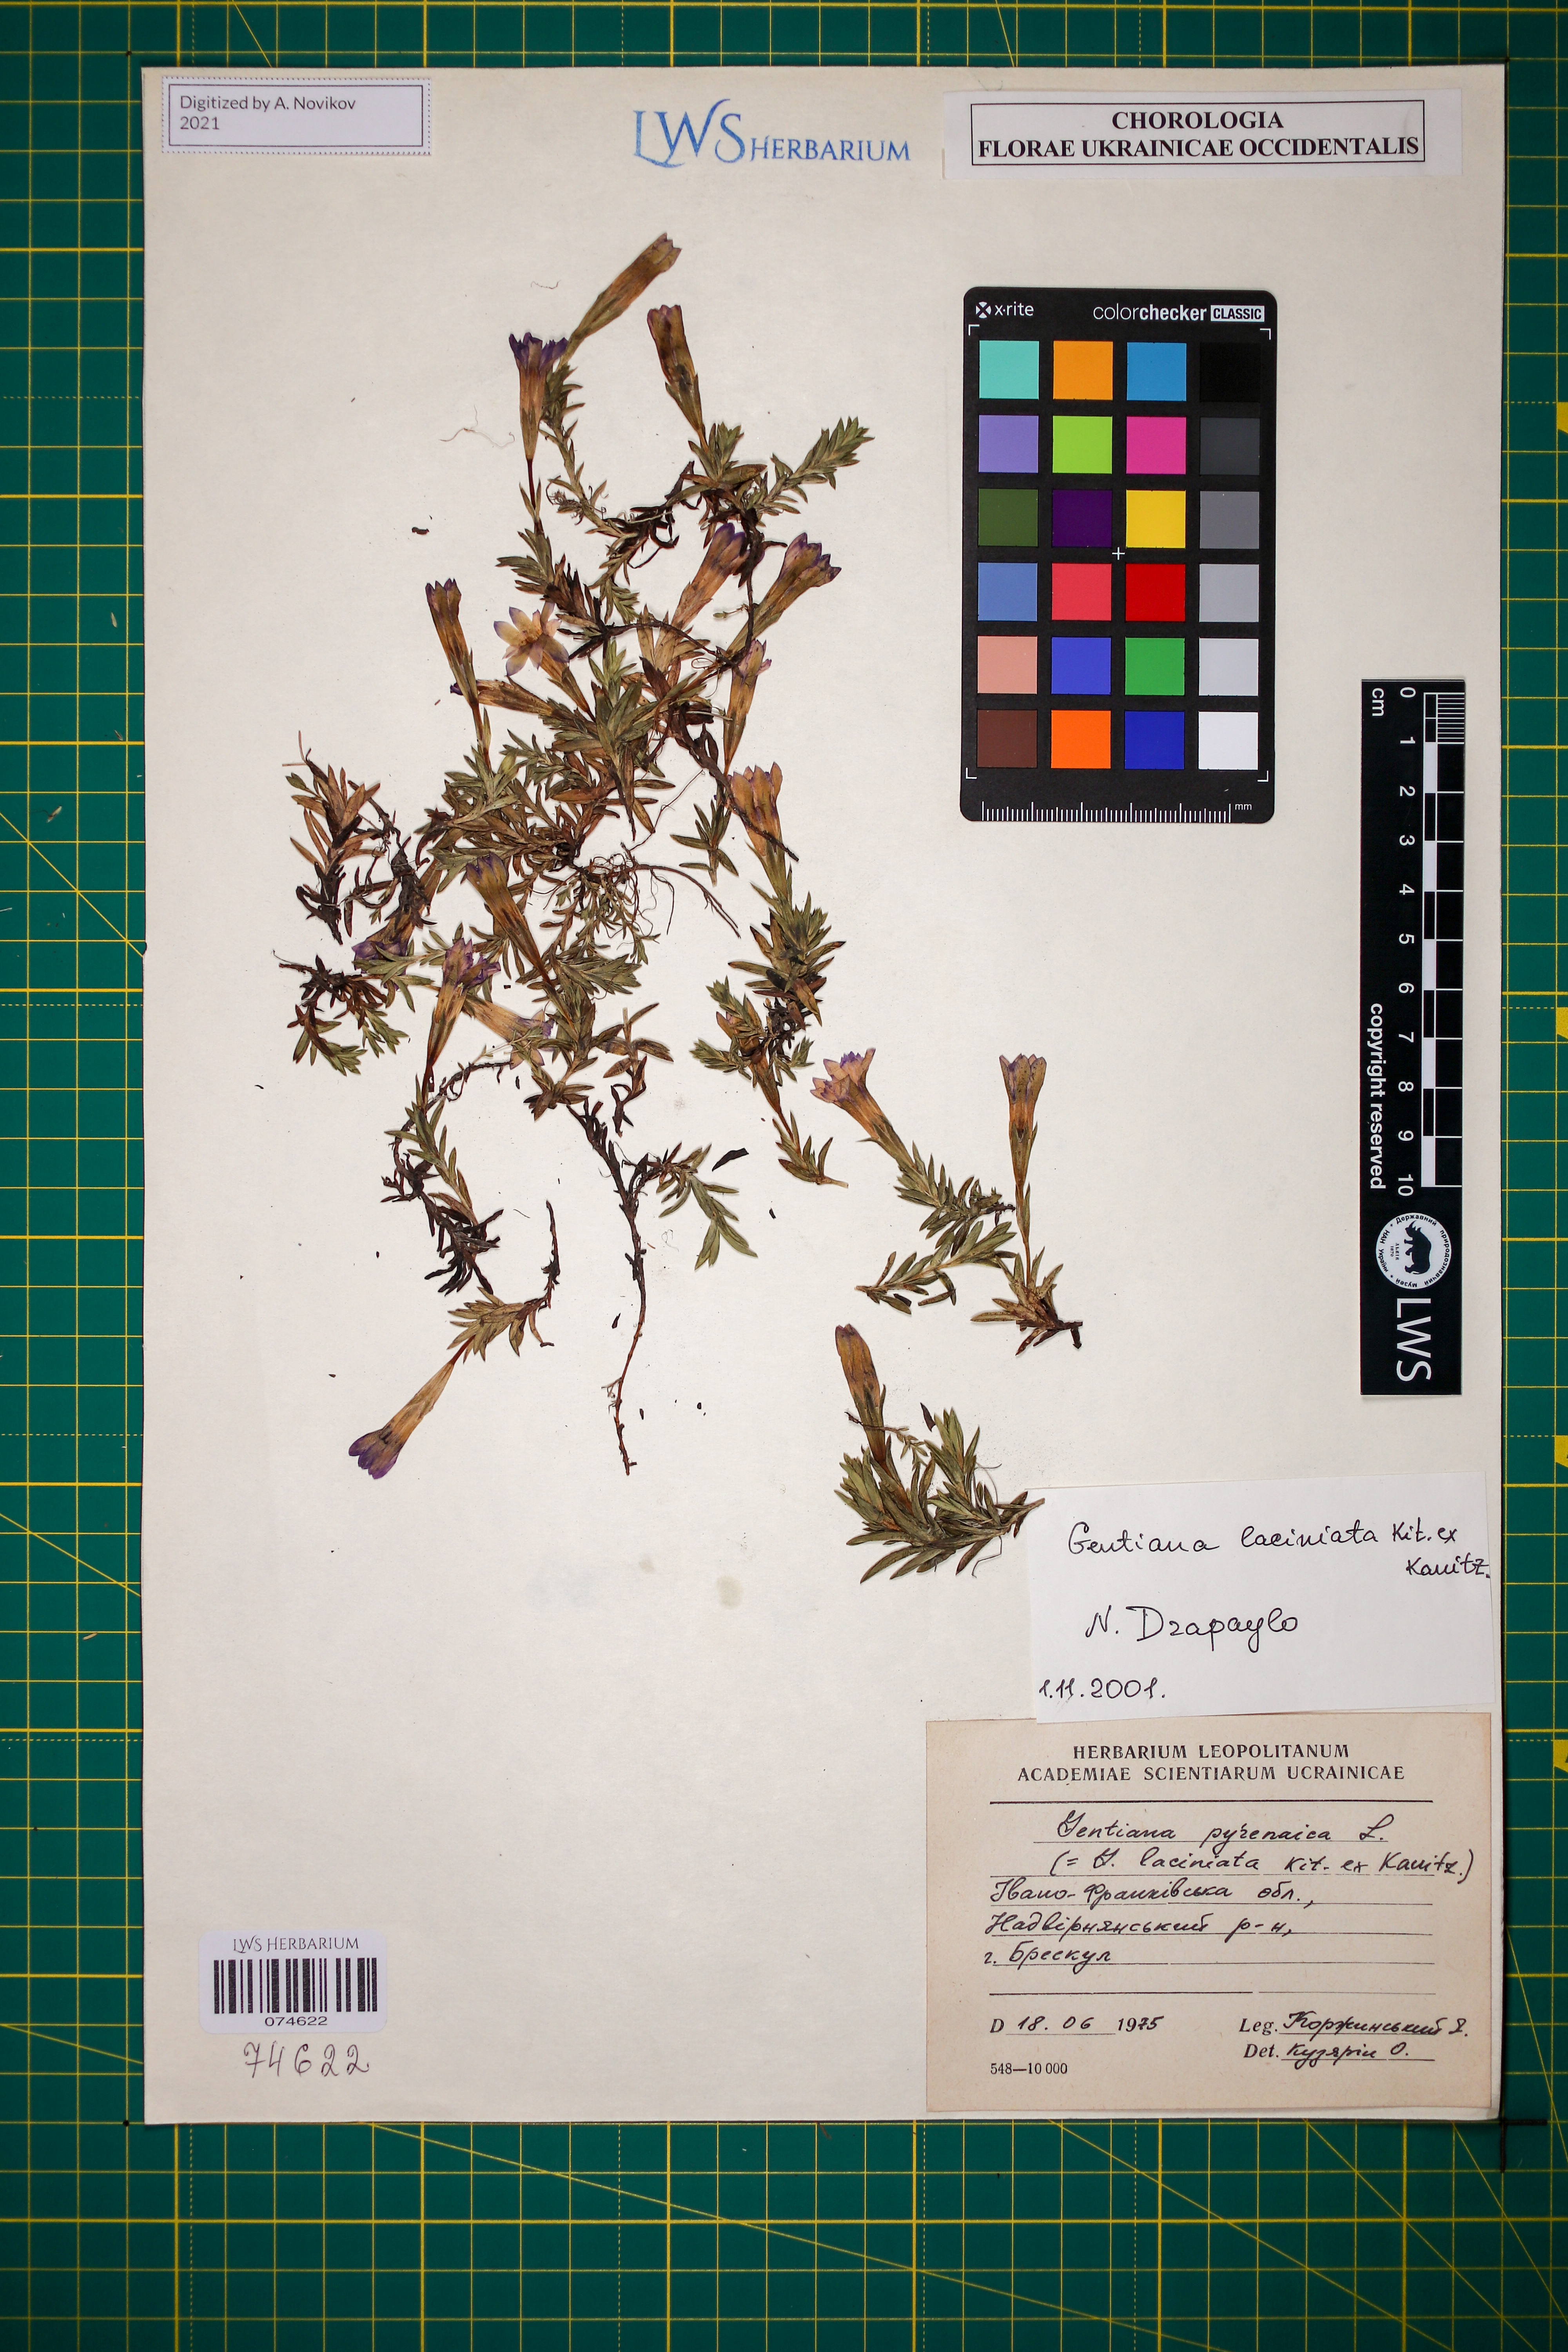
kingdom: Plantae
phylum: Tracheophyta
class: Magnoliopsida
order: Gentianales
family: Gentianaceae
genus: Gentiana
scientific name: Gentiana laciniata
